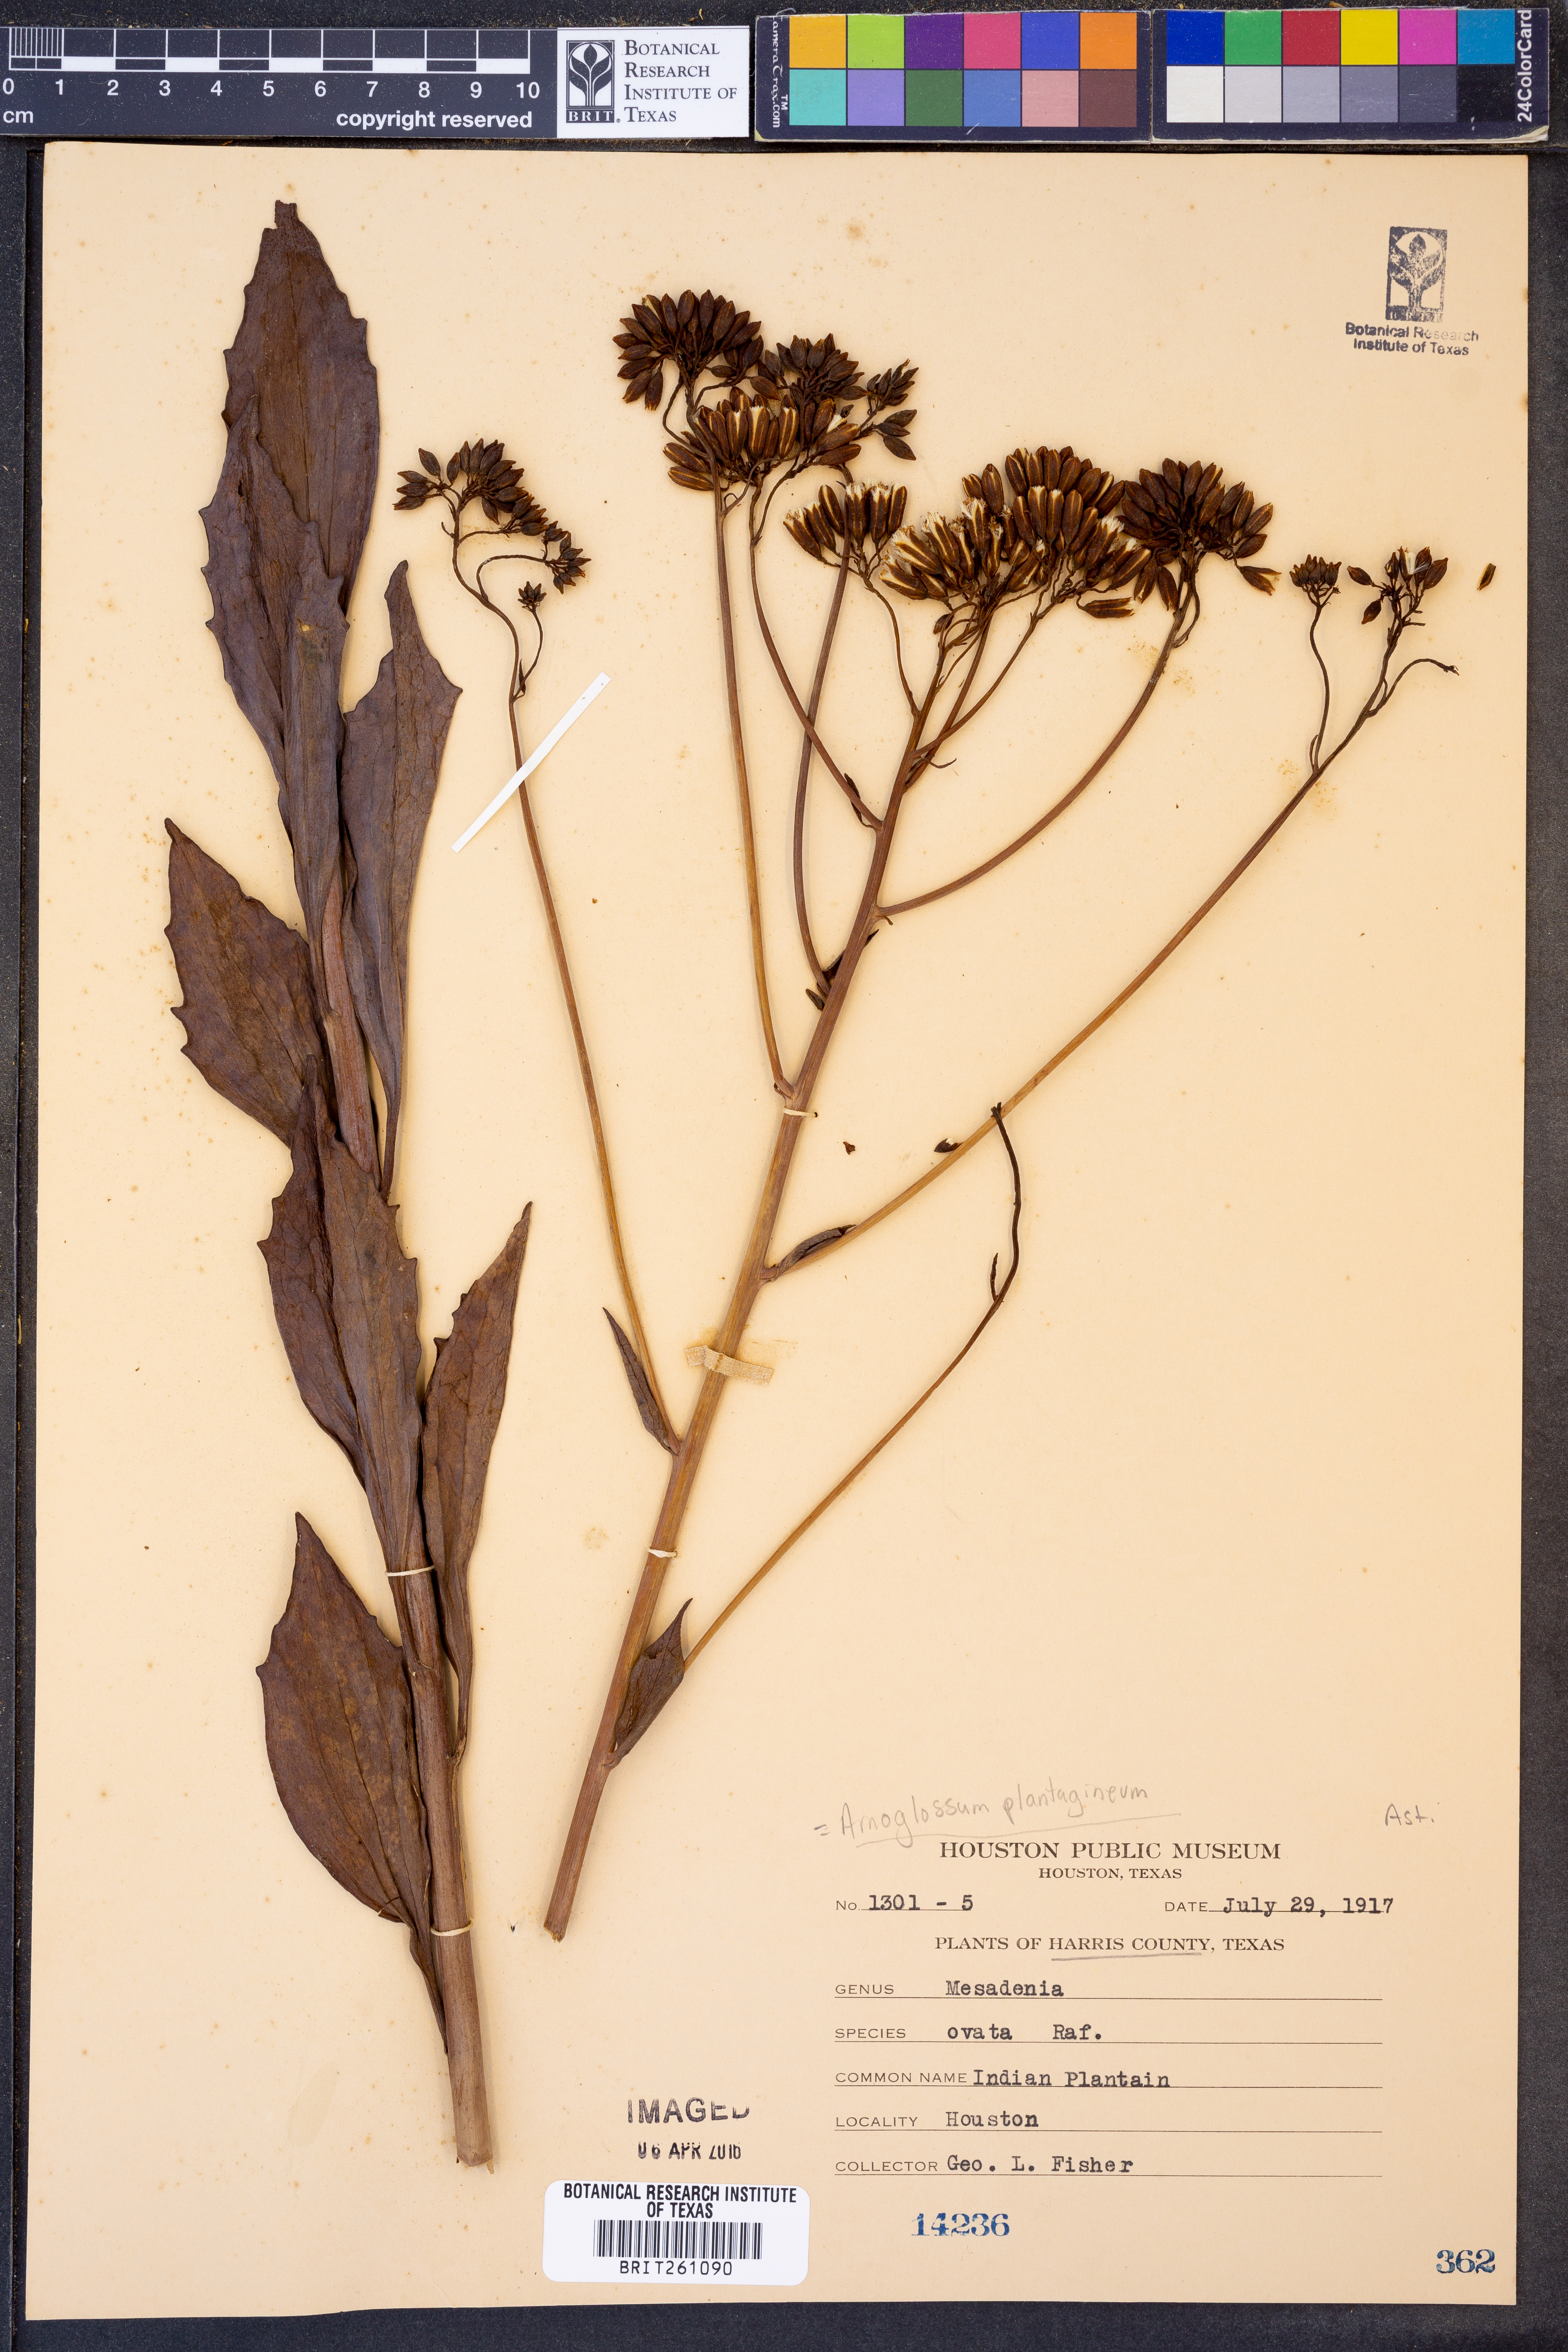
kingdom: Plantae
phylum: Tracheophyta
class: Magnoliopsida
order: Asterales
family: Asteraceae
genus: Arnoglossum
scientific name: Arnoglossum plantagineum
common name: Groove-stemmed indian-plantain
